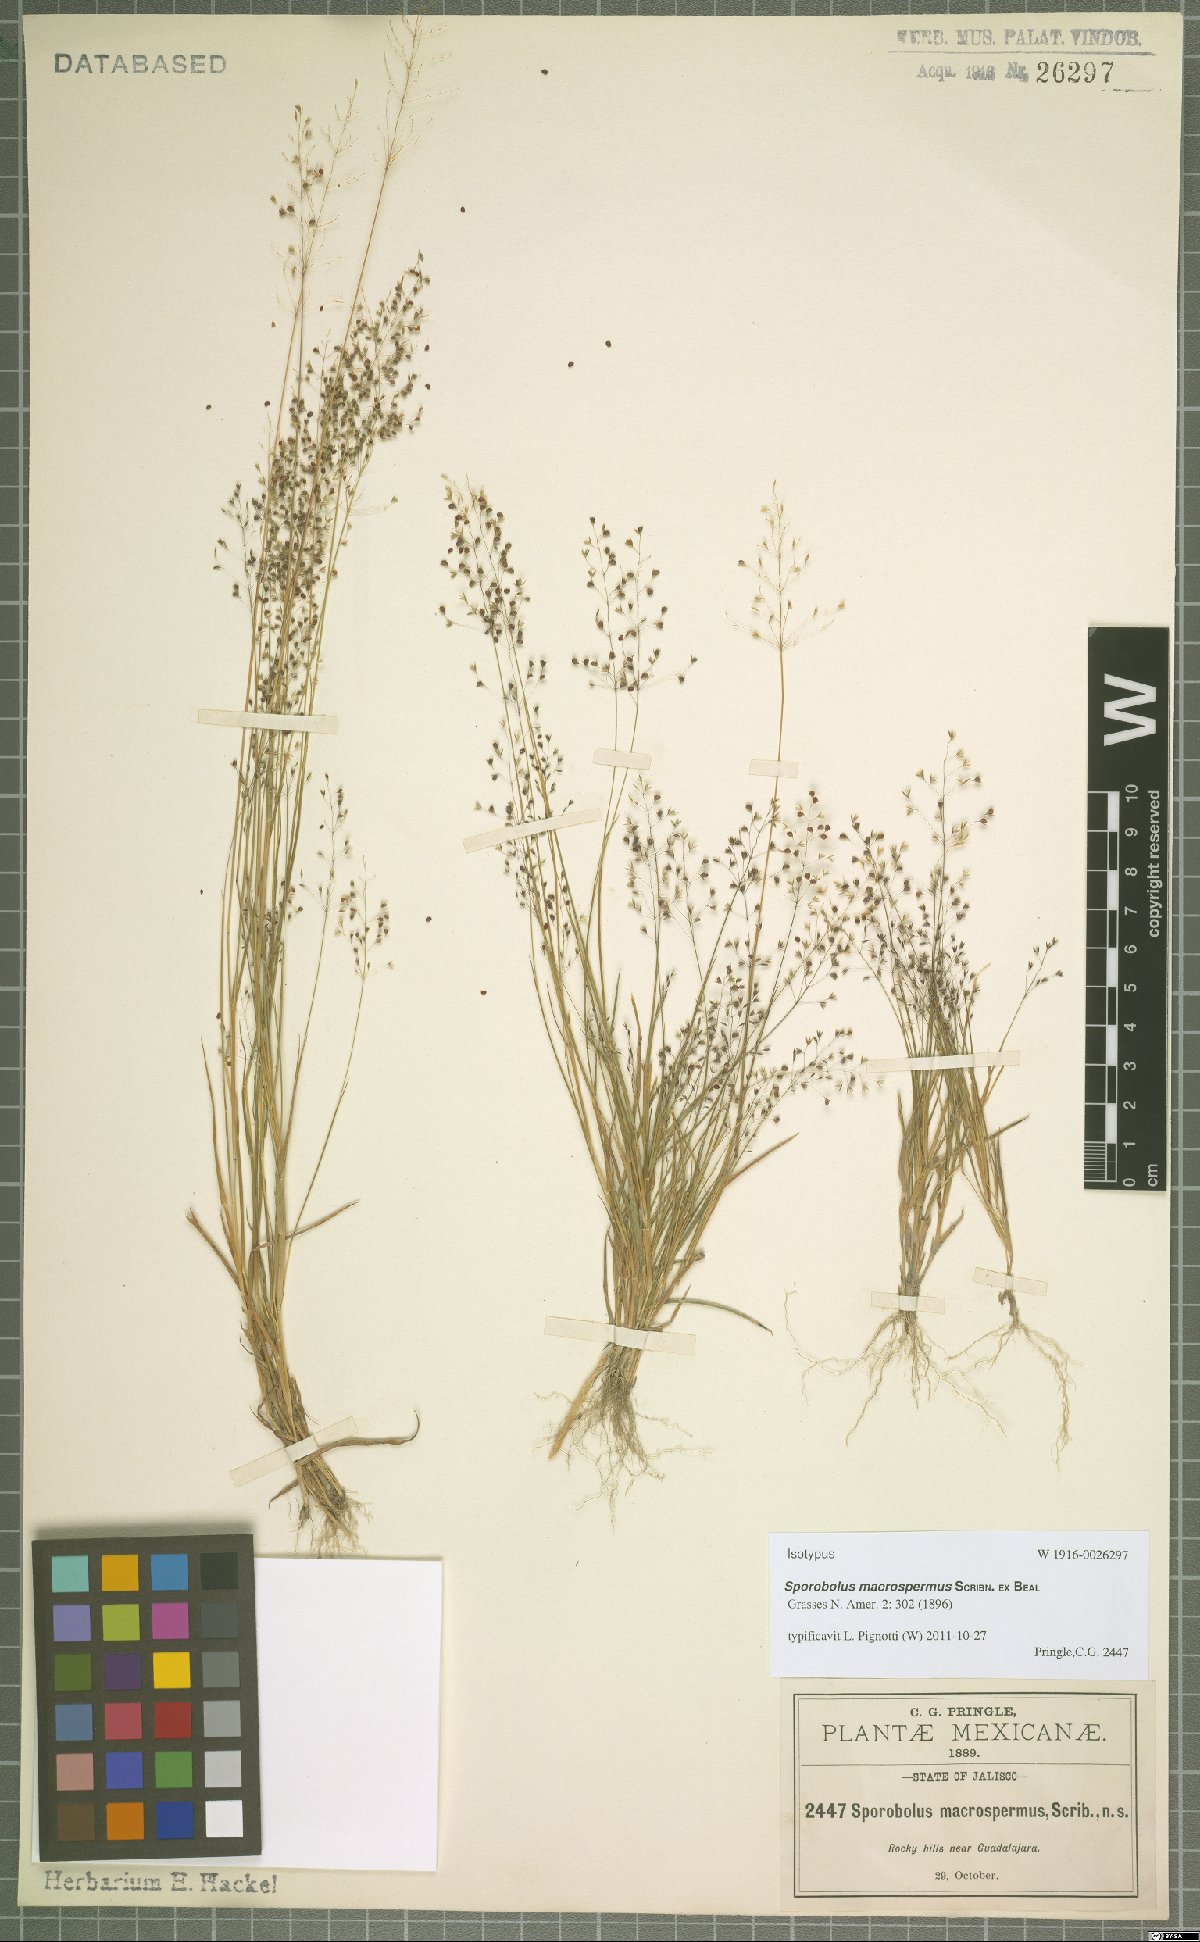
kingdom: Plantae
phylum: Tracheophyta
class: Liliopsida
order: Poales
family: Poaceae
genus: Sporobolus
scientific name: Sporobolus macrospermus
